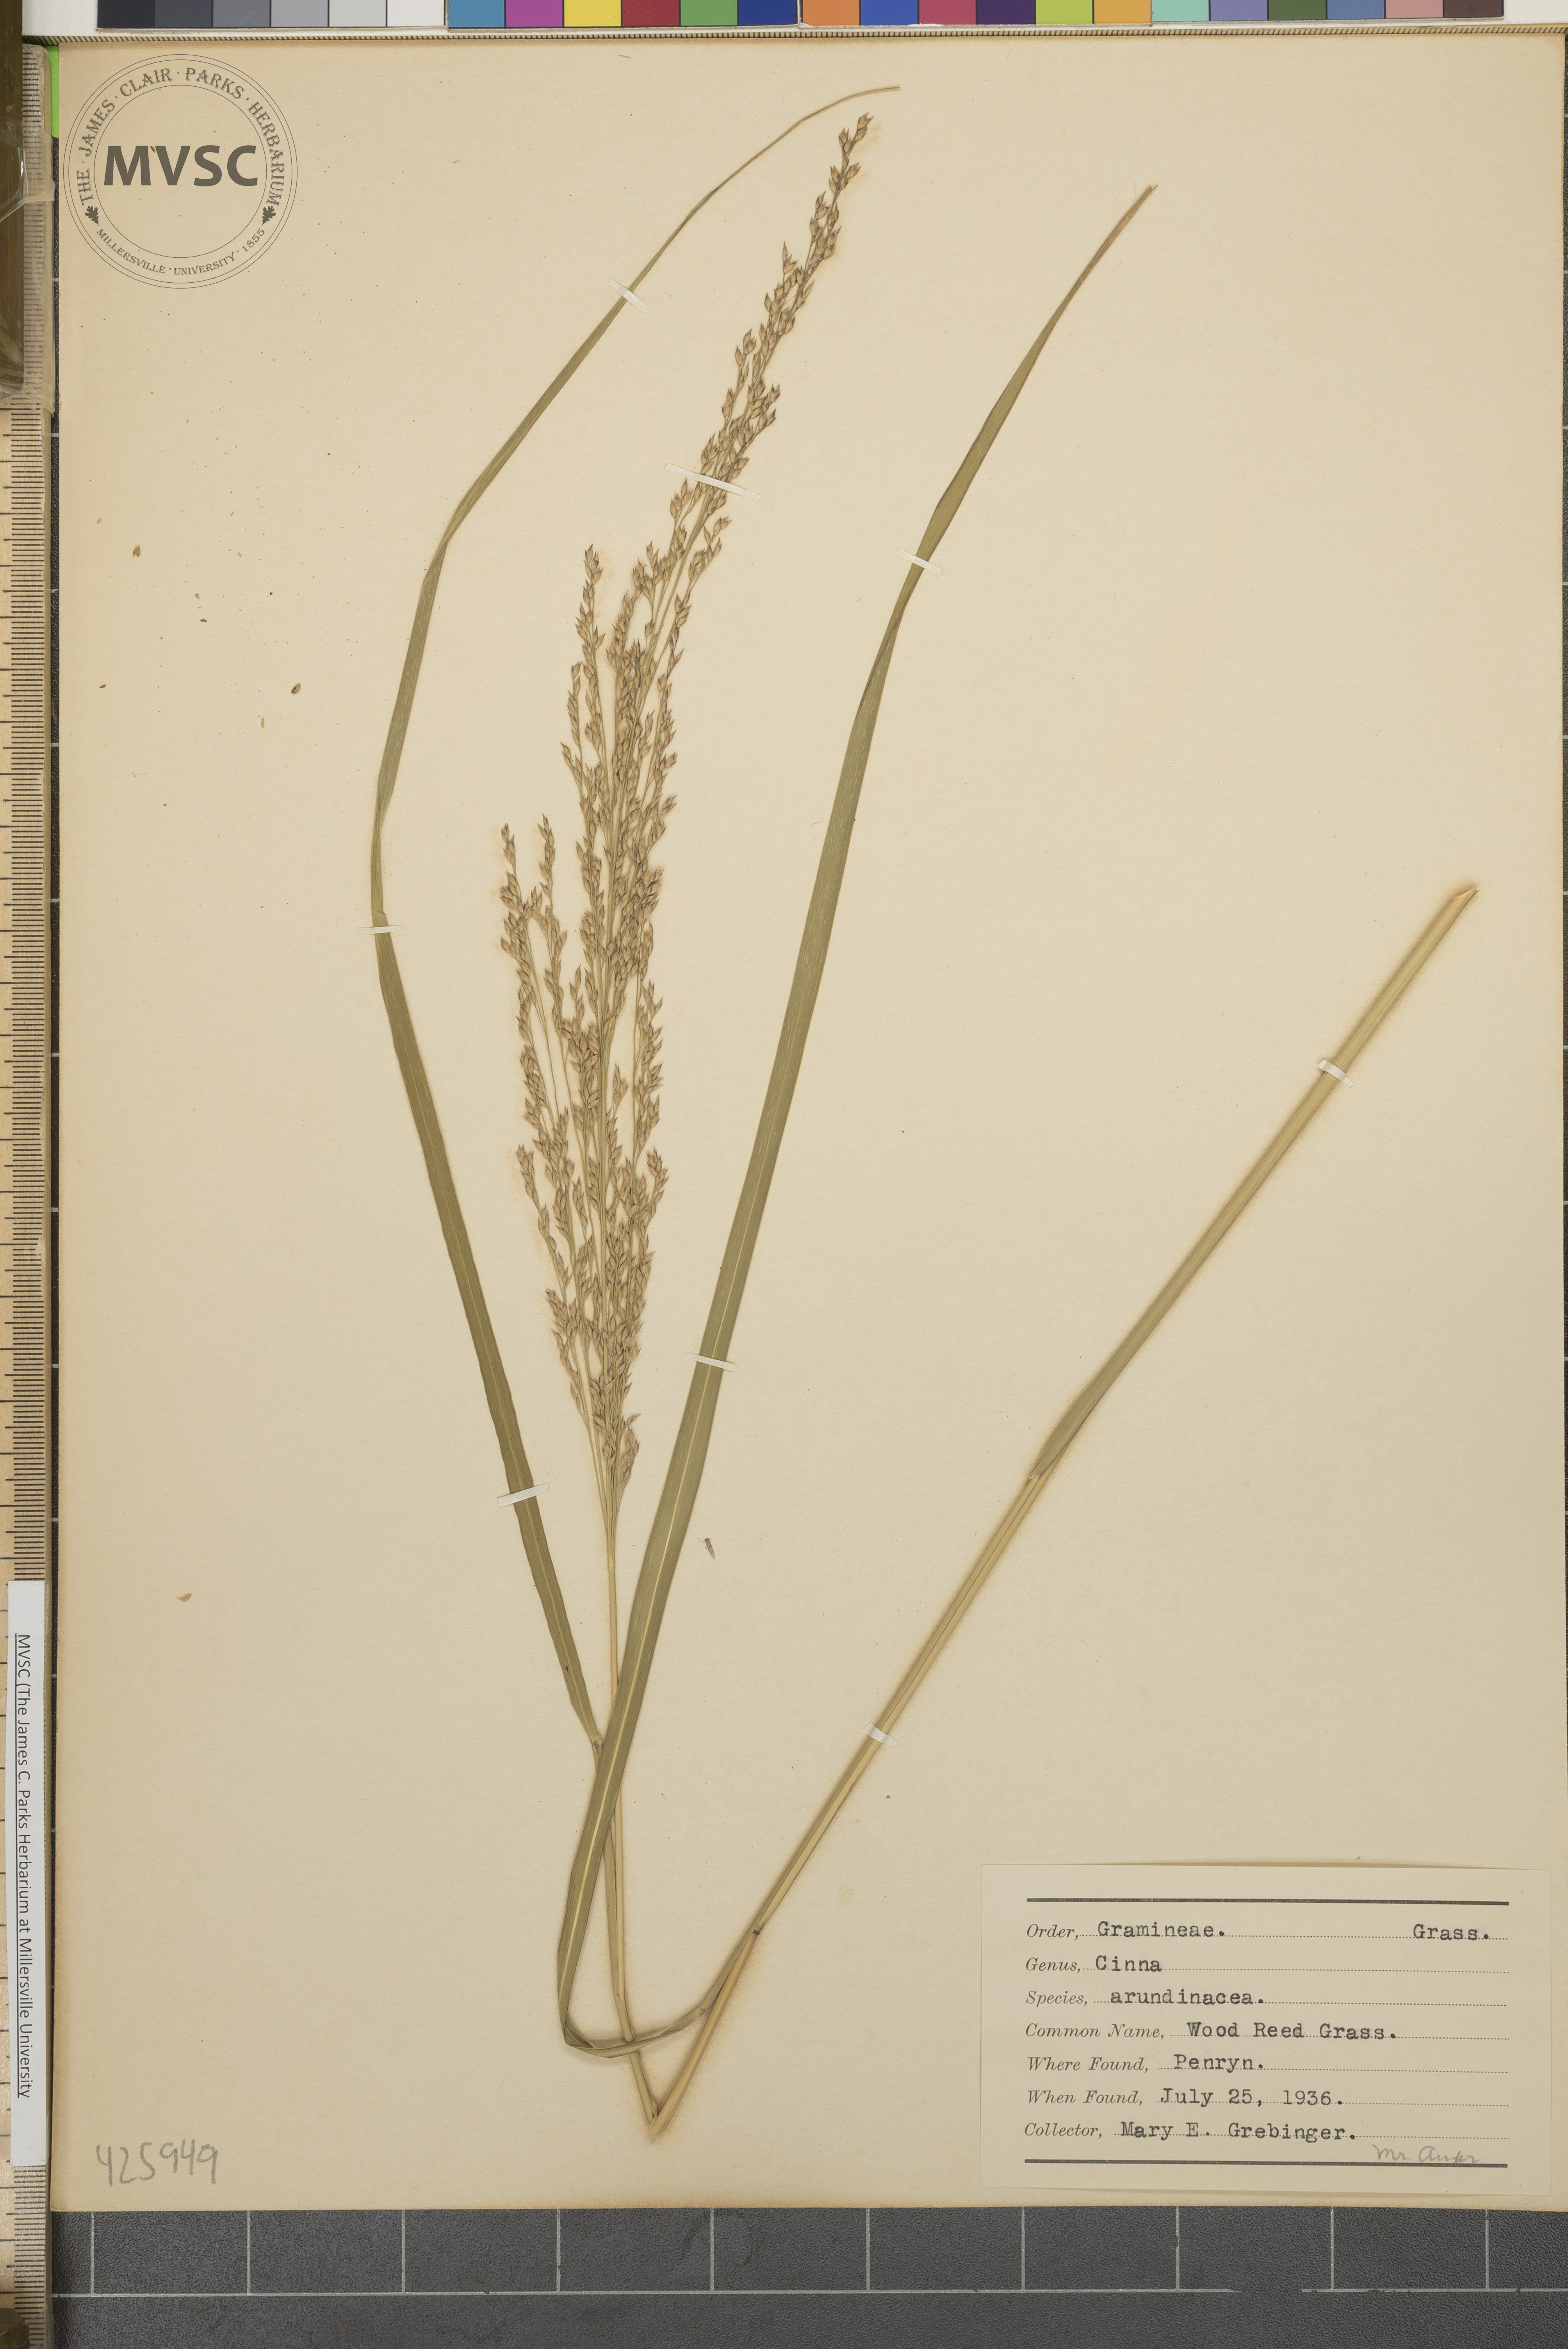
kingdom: Plantae
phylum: Tracheophyta
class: Liliopsida
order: Poales
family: Poaceae
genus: Cinna
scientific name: Cinna arundinacea
